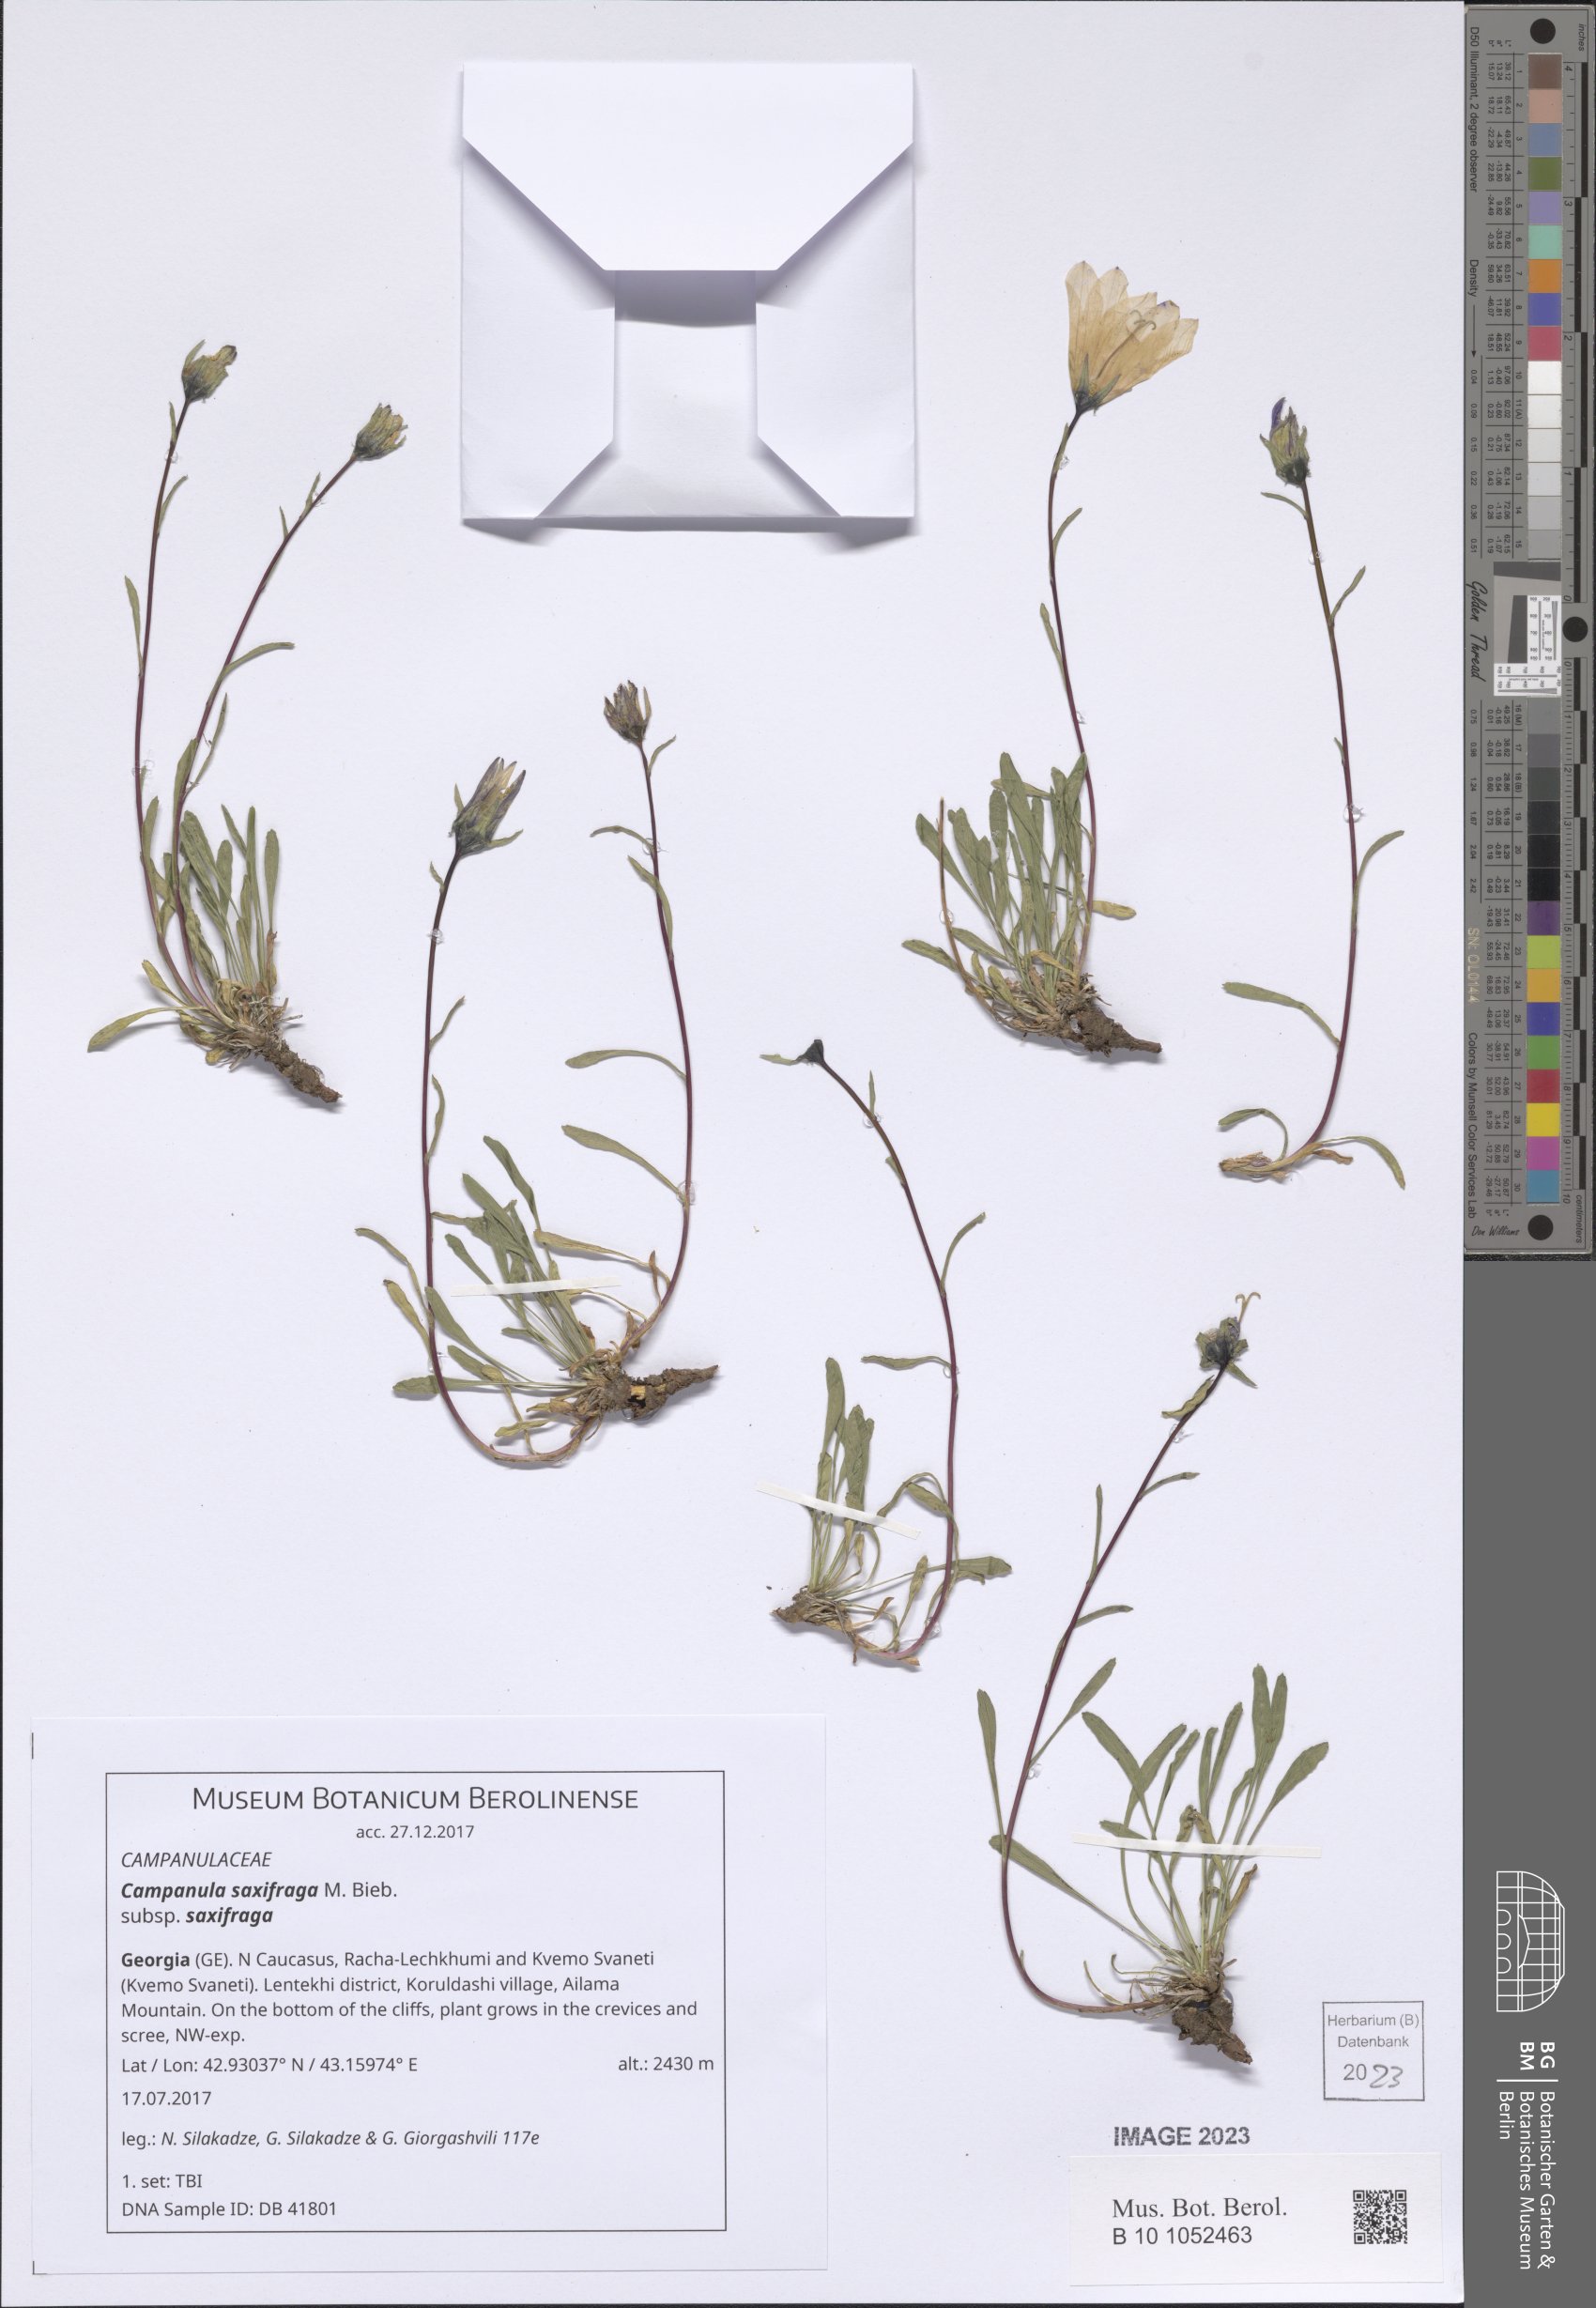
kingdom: Plantae
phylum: Tracheophyta
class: Magnoliopsida
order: Asterales
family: Campanulaceae
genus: Campanula
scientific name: Campanula saxifraga
